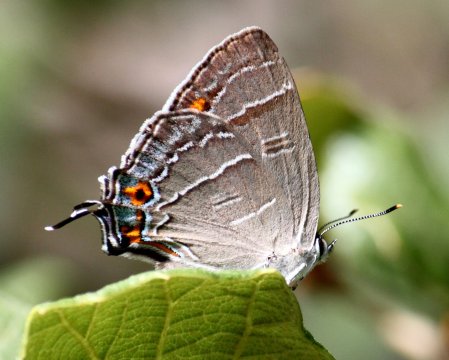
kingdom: Animalia
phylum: Arthropoda
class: Insecta
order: Lepidoptera
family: Lycaenidae
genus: Hypaurotis
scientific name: Hypaurotis crysalus
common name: Colorado Hairstreak
